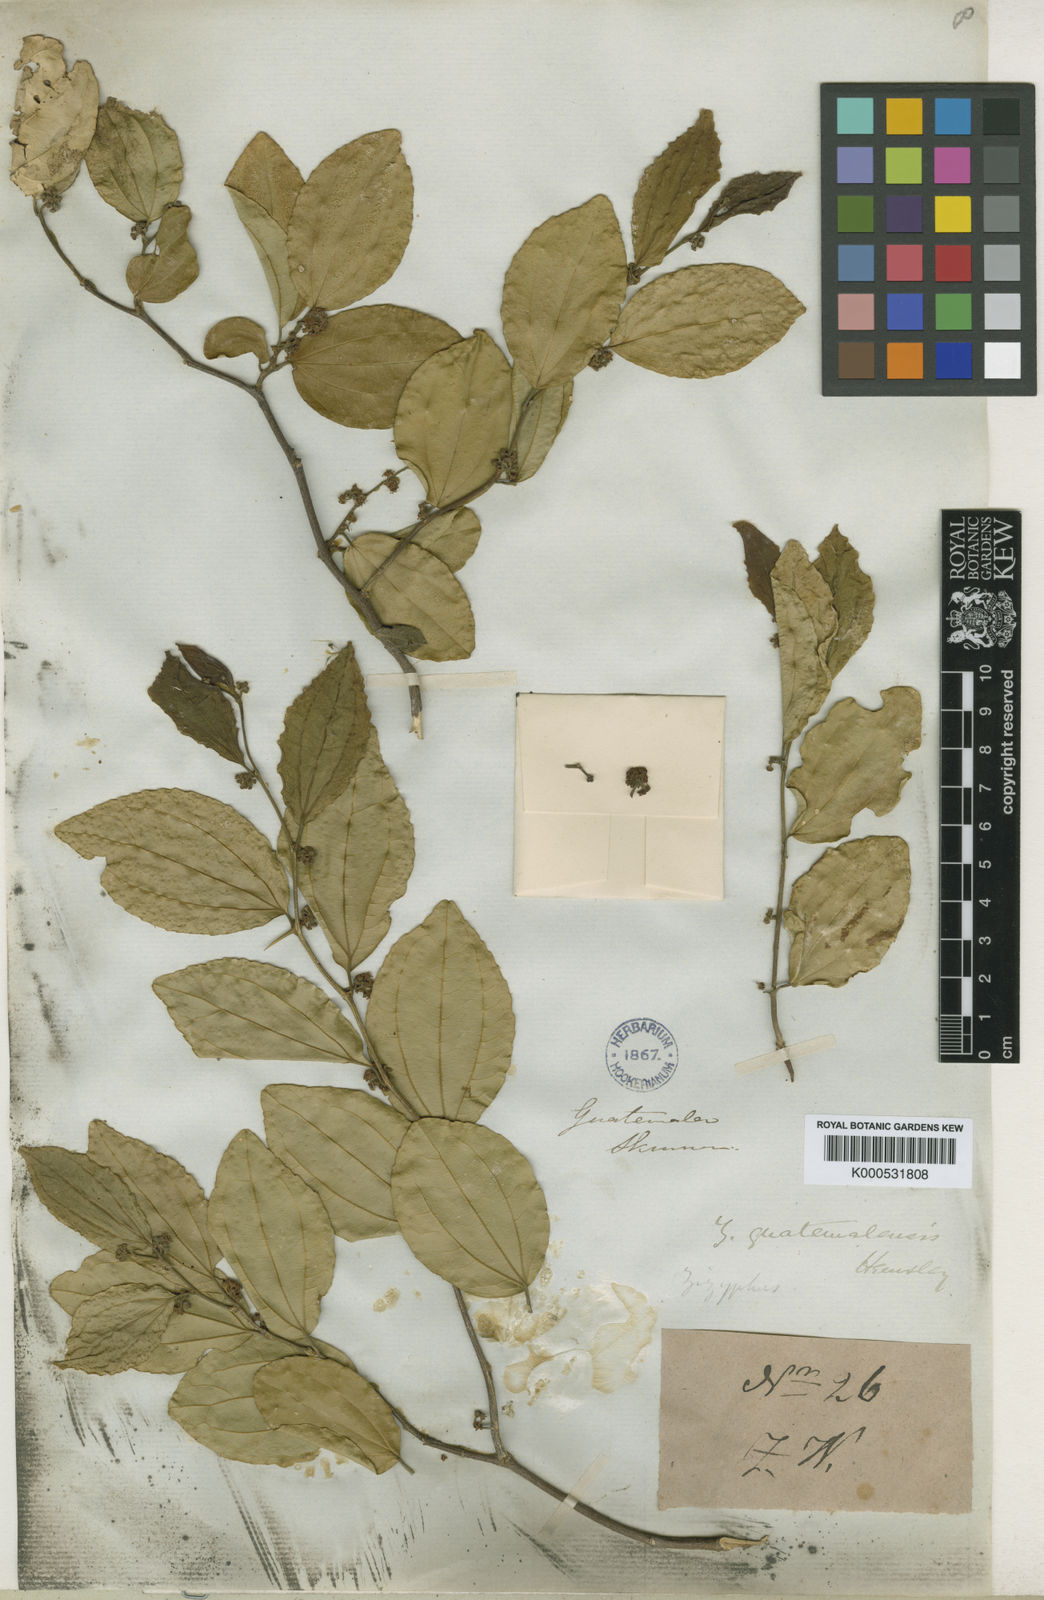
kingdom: Plantae
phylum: Tracheophyta
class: Magnoliopsida
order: Rosales
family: Rhamnaceae
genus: Sarcomphalus
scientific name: Sarcomphalus guatemalensis
